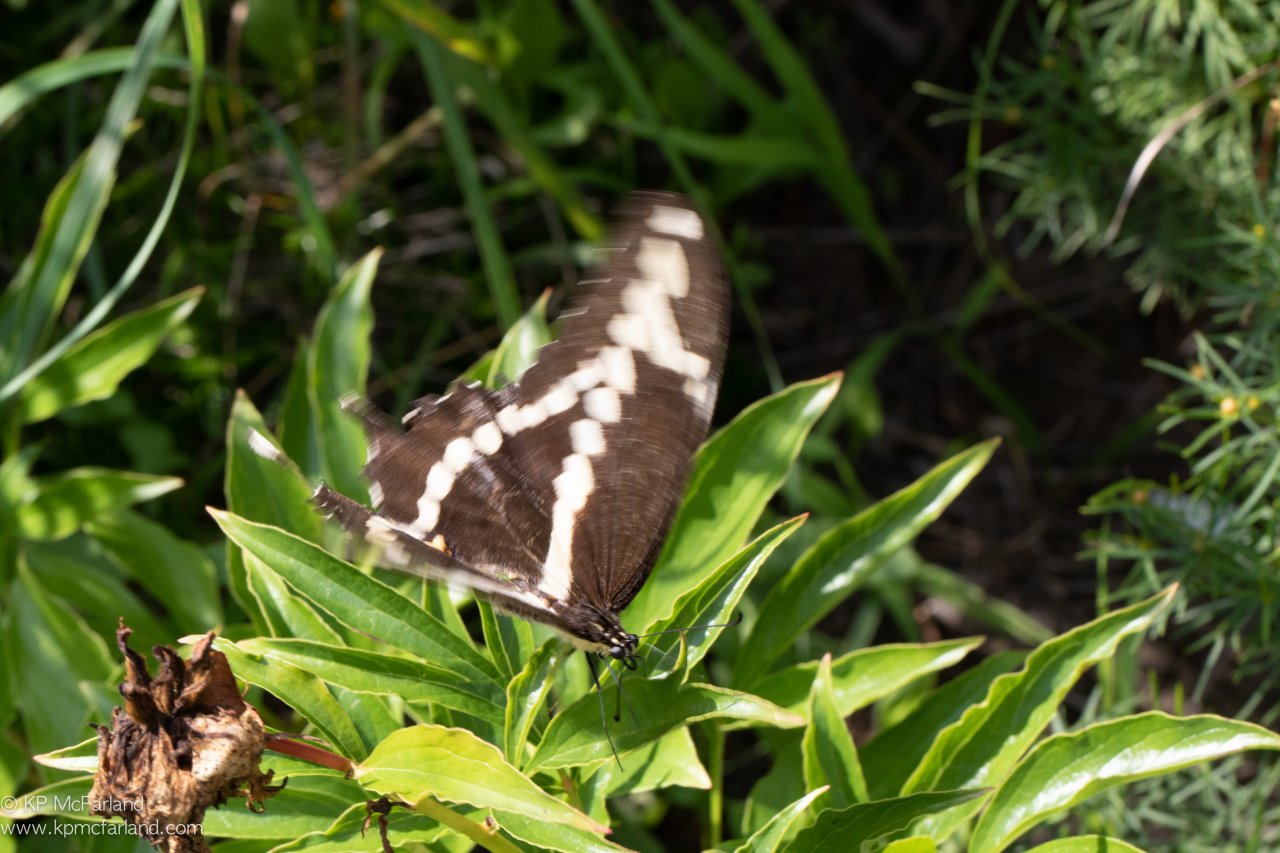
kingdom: Animalia
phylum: Arthropoda
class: Insecta
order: Lepidoptera
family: Papilionidae
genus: Papilio
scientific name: Papilio cresphontes
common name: Eastern Giant Swallowtail
